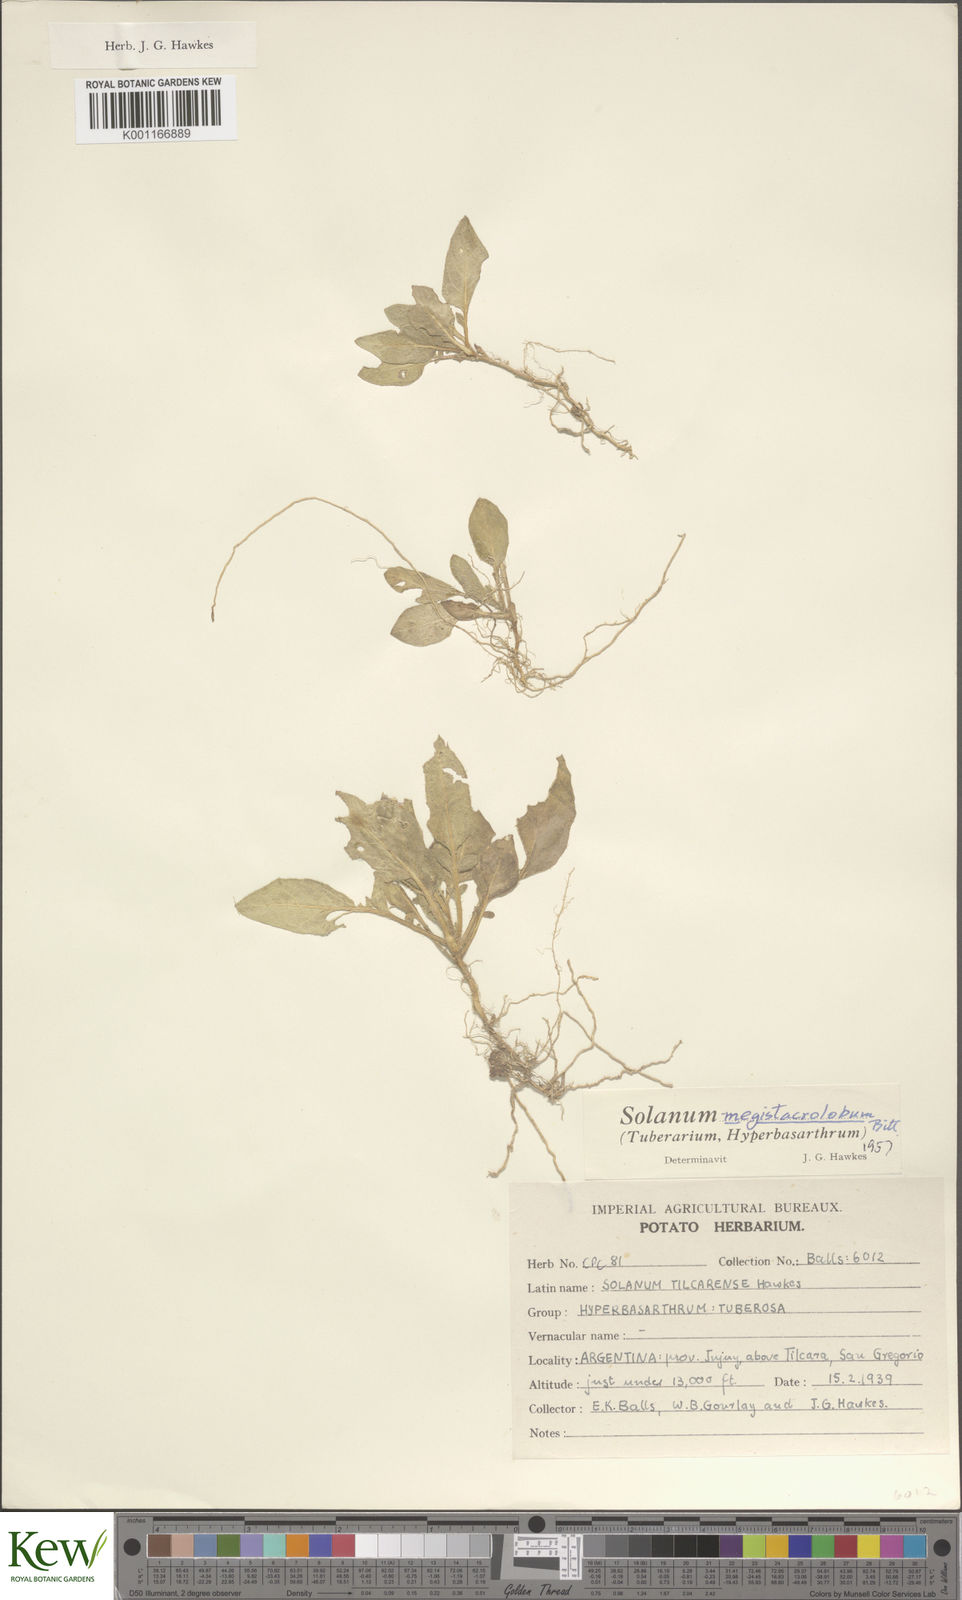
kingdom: Plantae
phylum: Tracheophyta
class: Magnoliopsida
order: Solanales
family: Solanaceae
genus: Solanum
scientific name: Solanum boliviense
